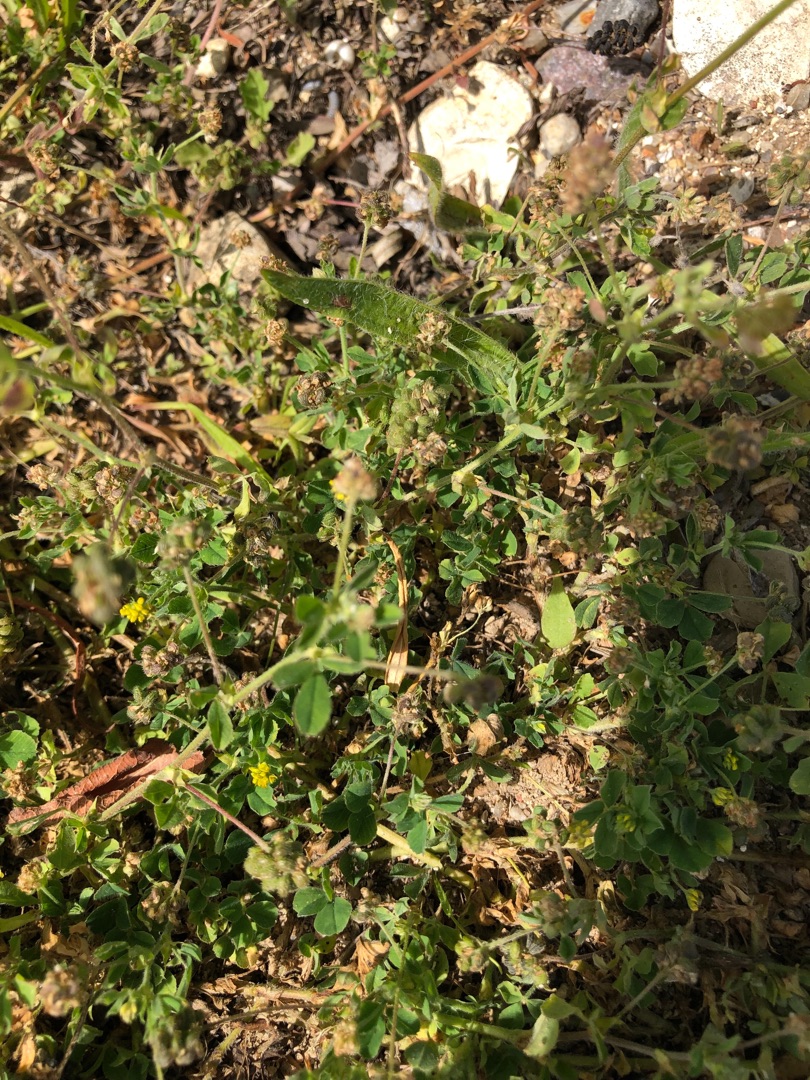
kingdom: Plantae
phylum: Tracheophyta
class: Magnoliopsida
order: Fabales
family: Fabaceae
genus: Medicago
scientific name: Medicago lupulina
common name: Humle-sneglebælg
